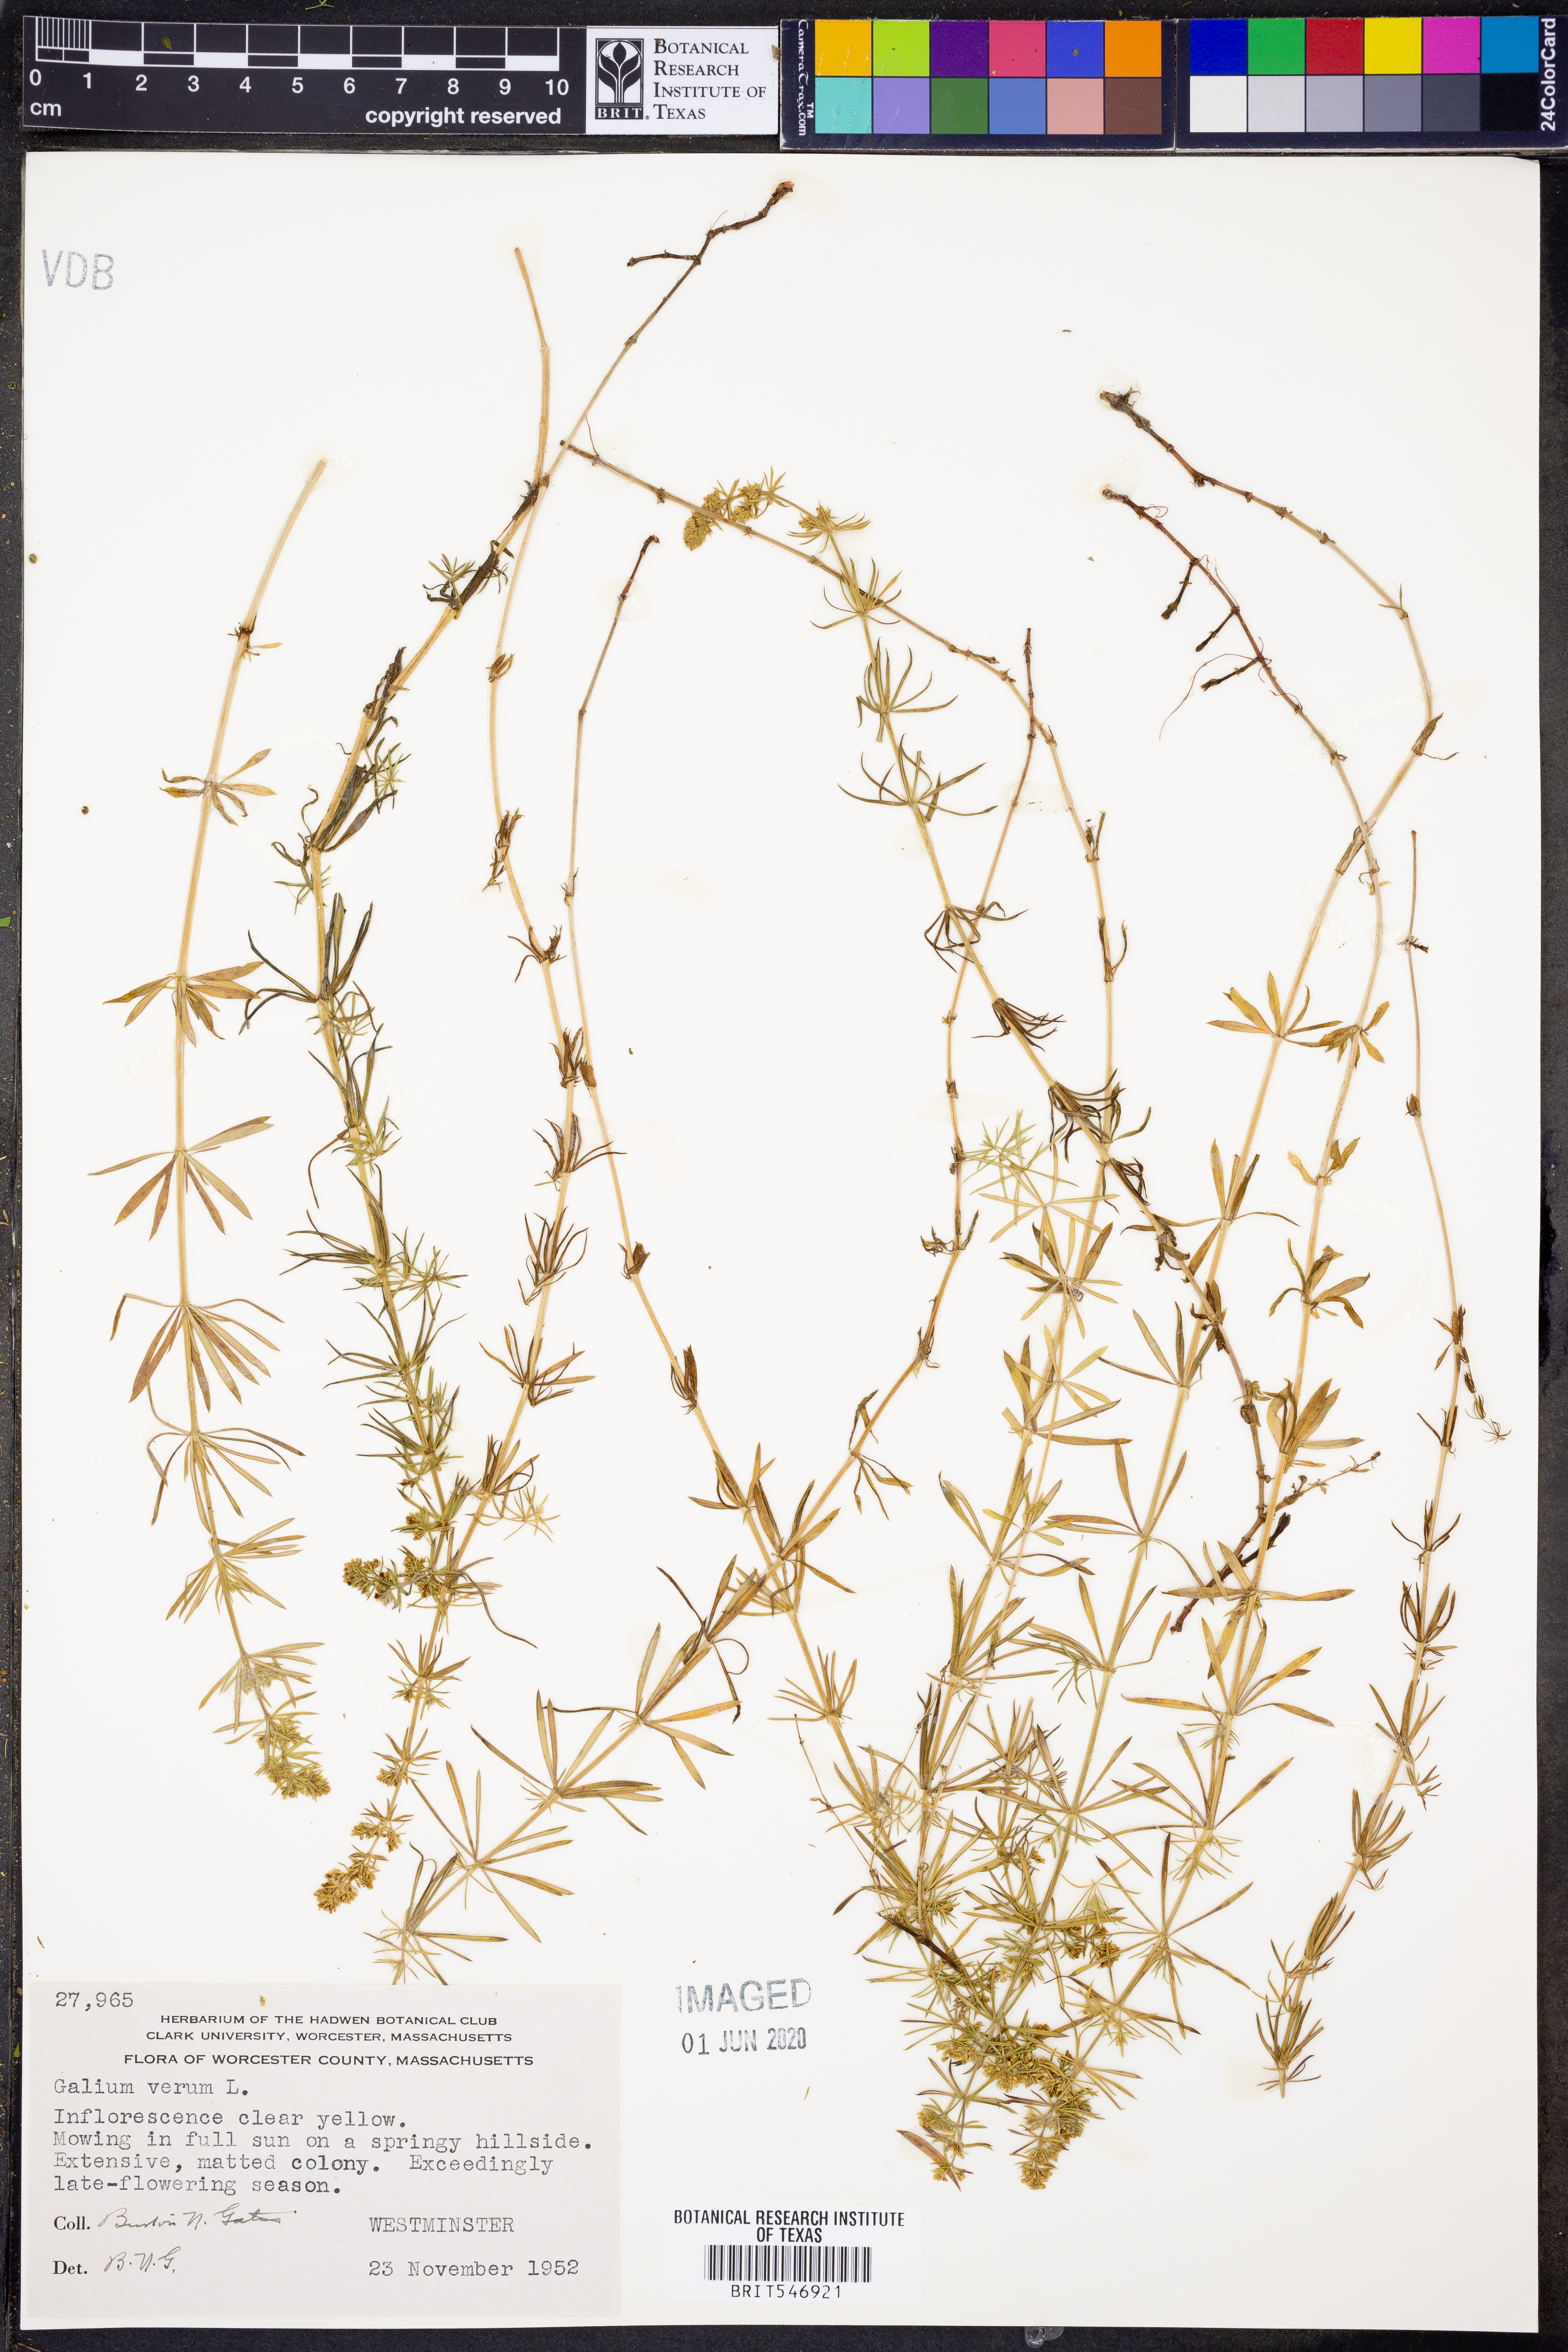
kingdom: Plantae
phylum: Tracheophyta
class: Magnoliopsida
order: Gentianales
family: Rubiaceae
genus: Galium
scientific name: Galium verum
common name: Lady's bedstraw
